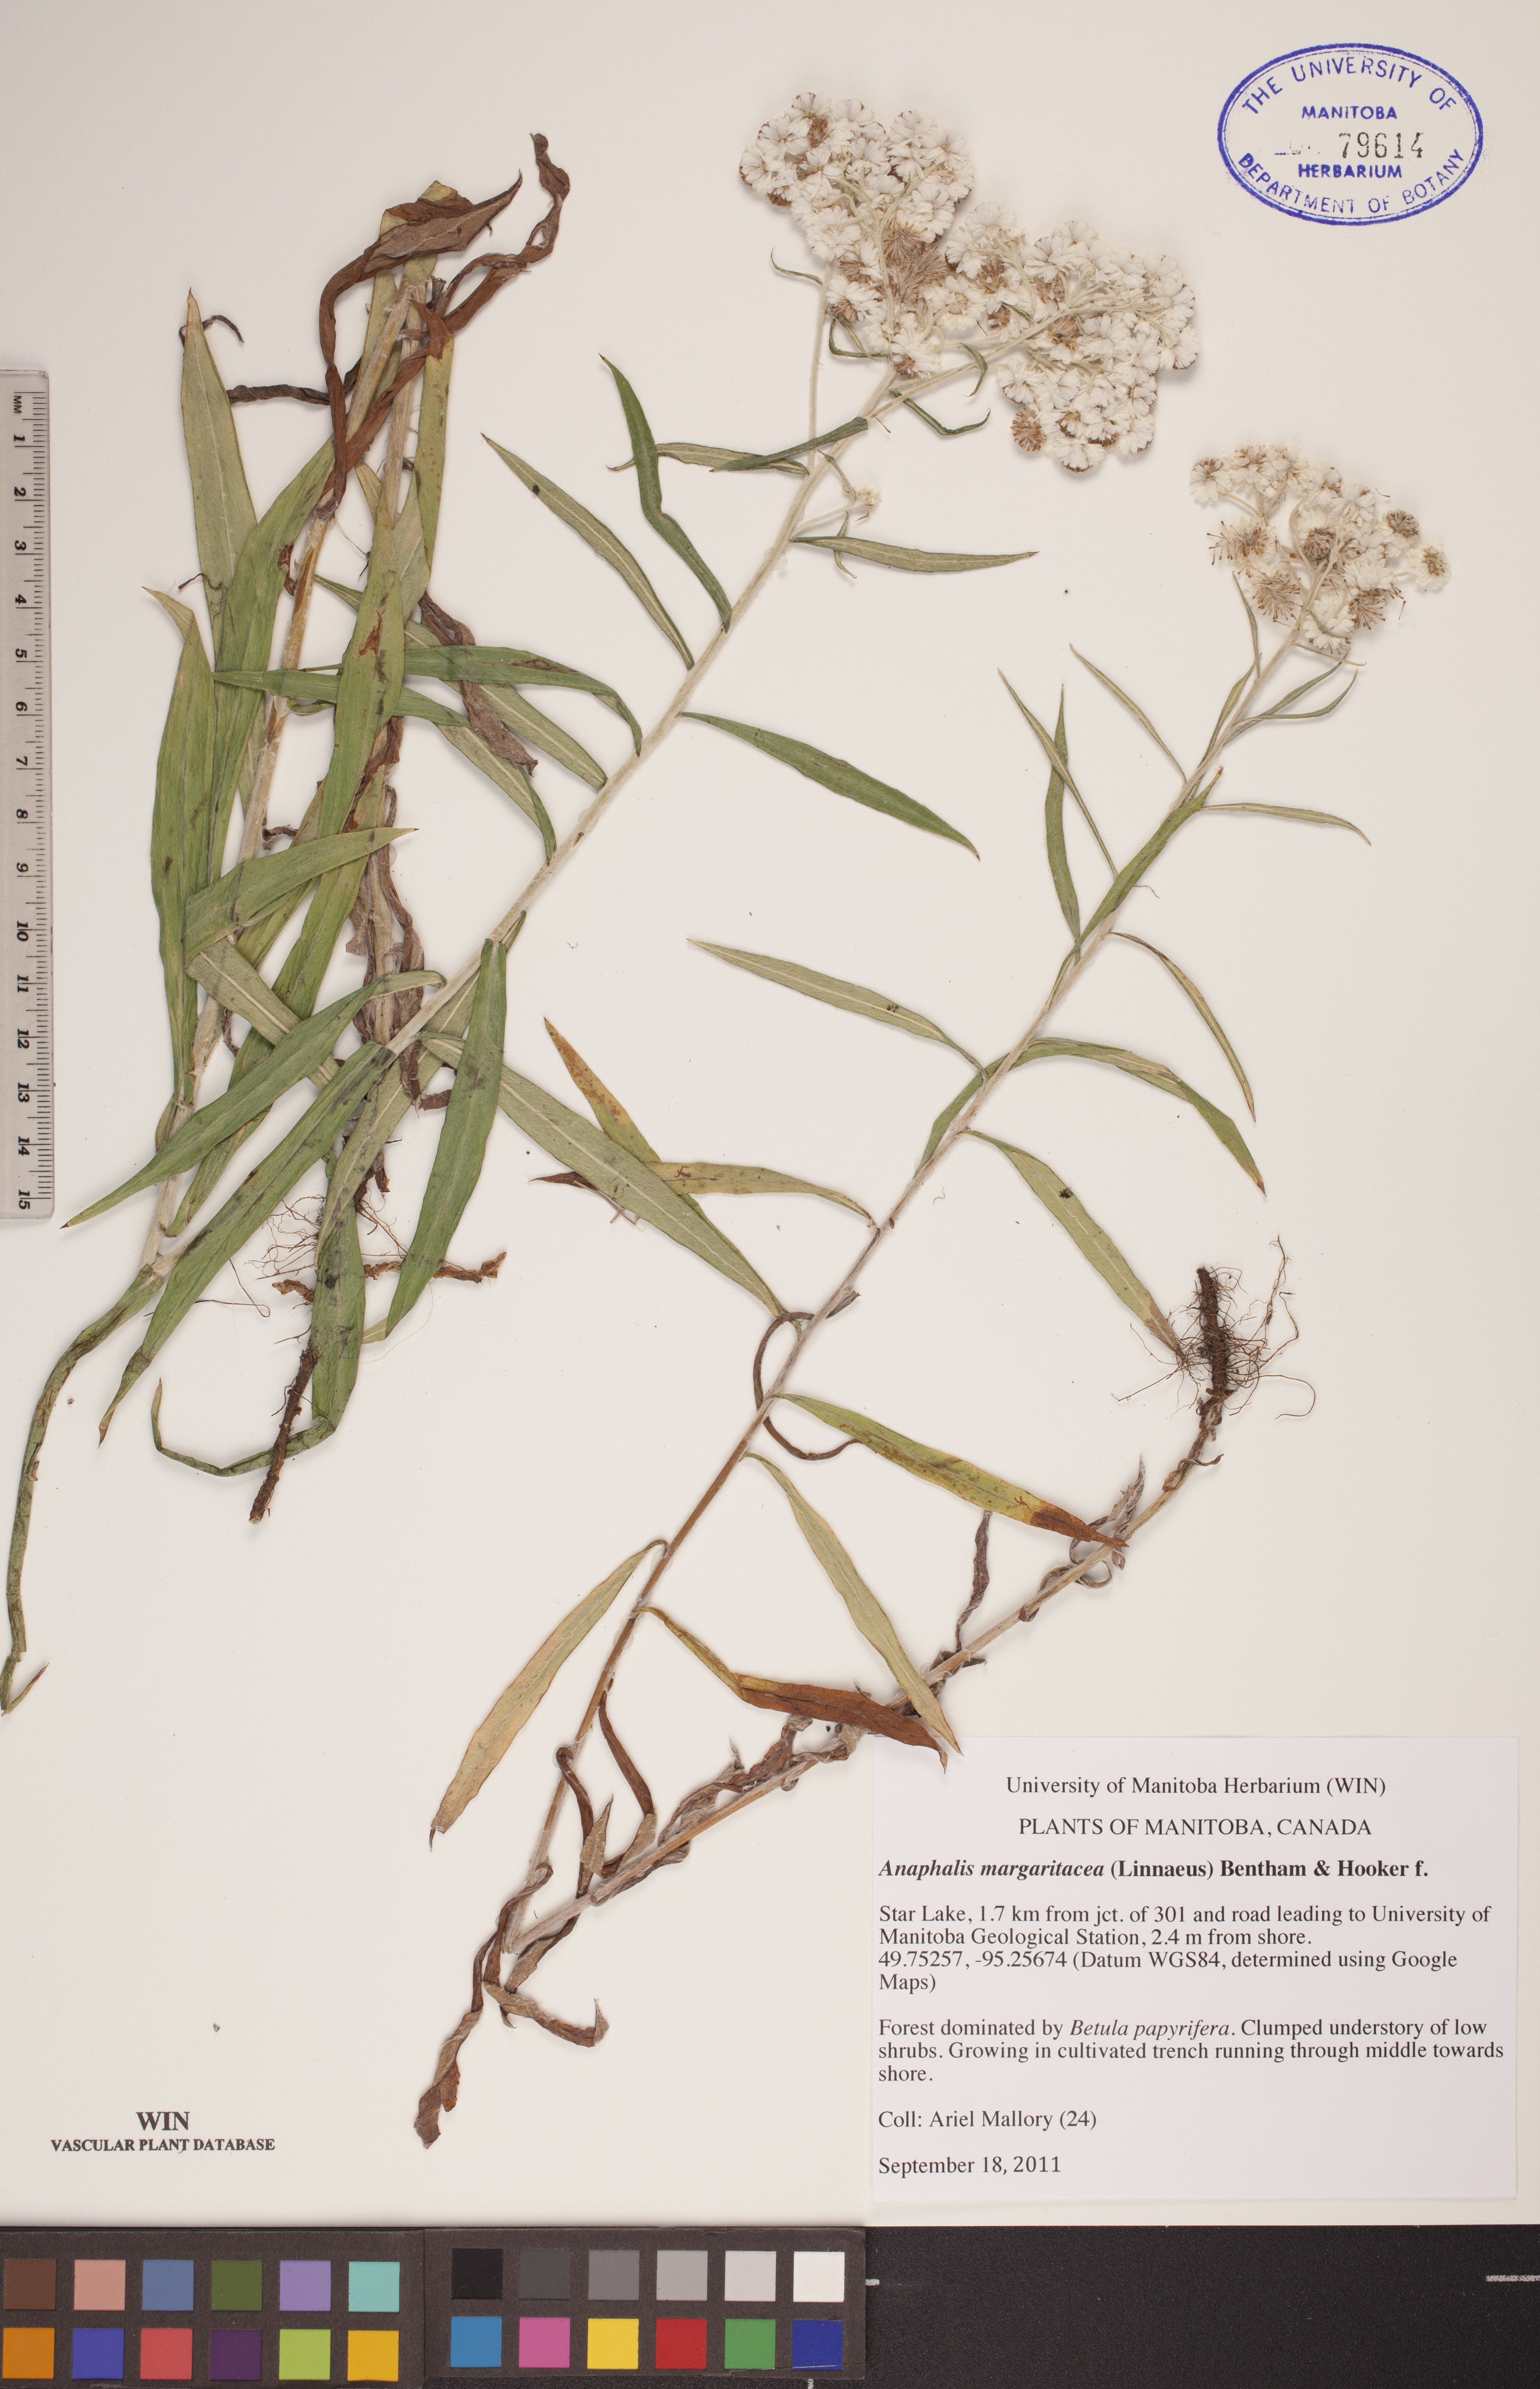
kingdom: Plantae
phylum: Tracheophyta
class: Magnoliopsida
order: Asterales
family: Asteraceae
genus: Anaphalis
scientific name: Anaphalis margaritacea
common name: Pearly everlasting
